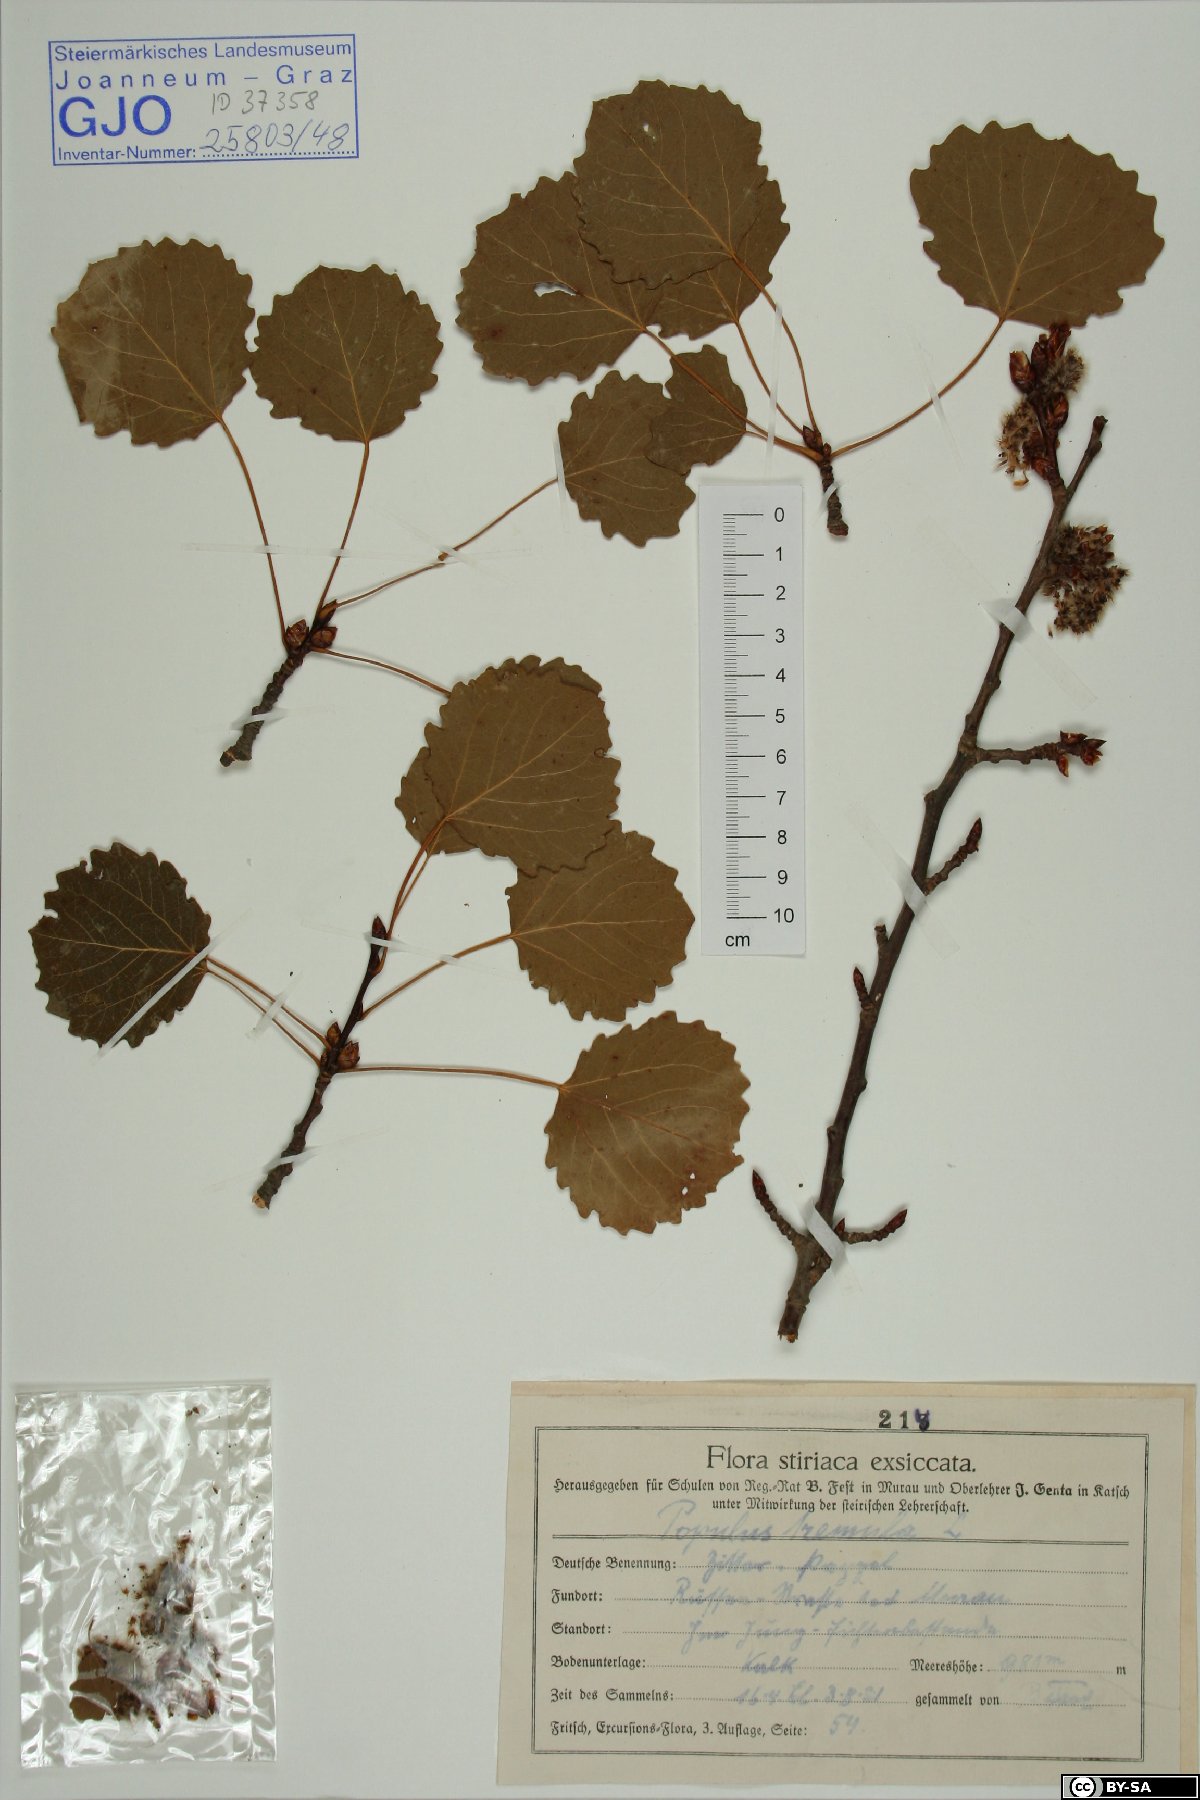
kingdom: Plantae
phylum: Tracheophyta
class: Magnoliopsida
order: Malpighiales
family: Salicaceae
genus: Populus
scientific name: Populus tremula
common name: European aspen
